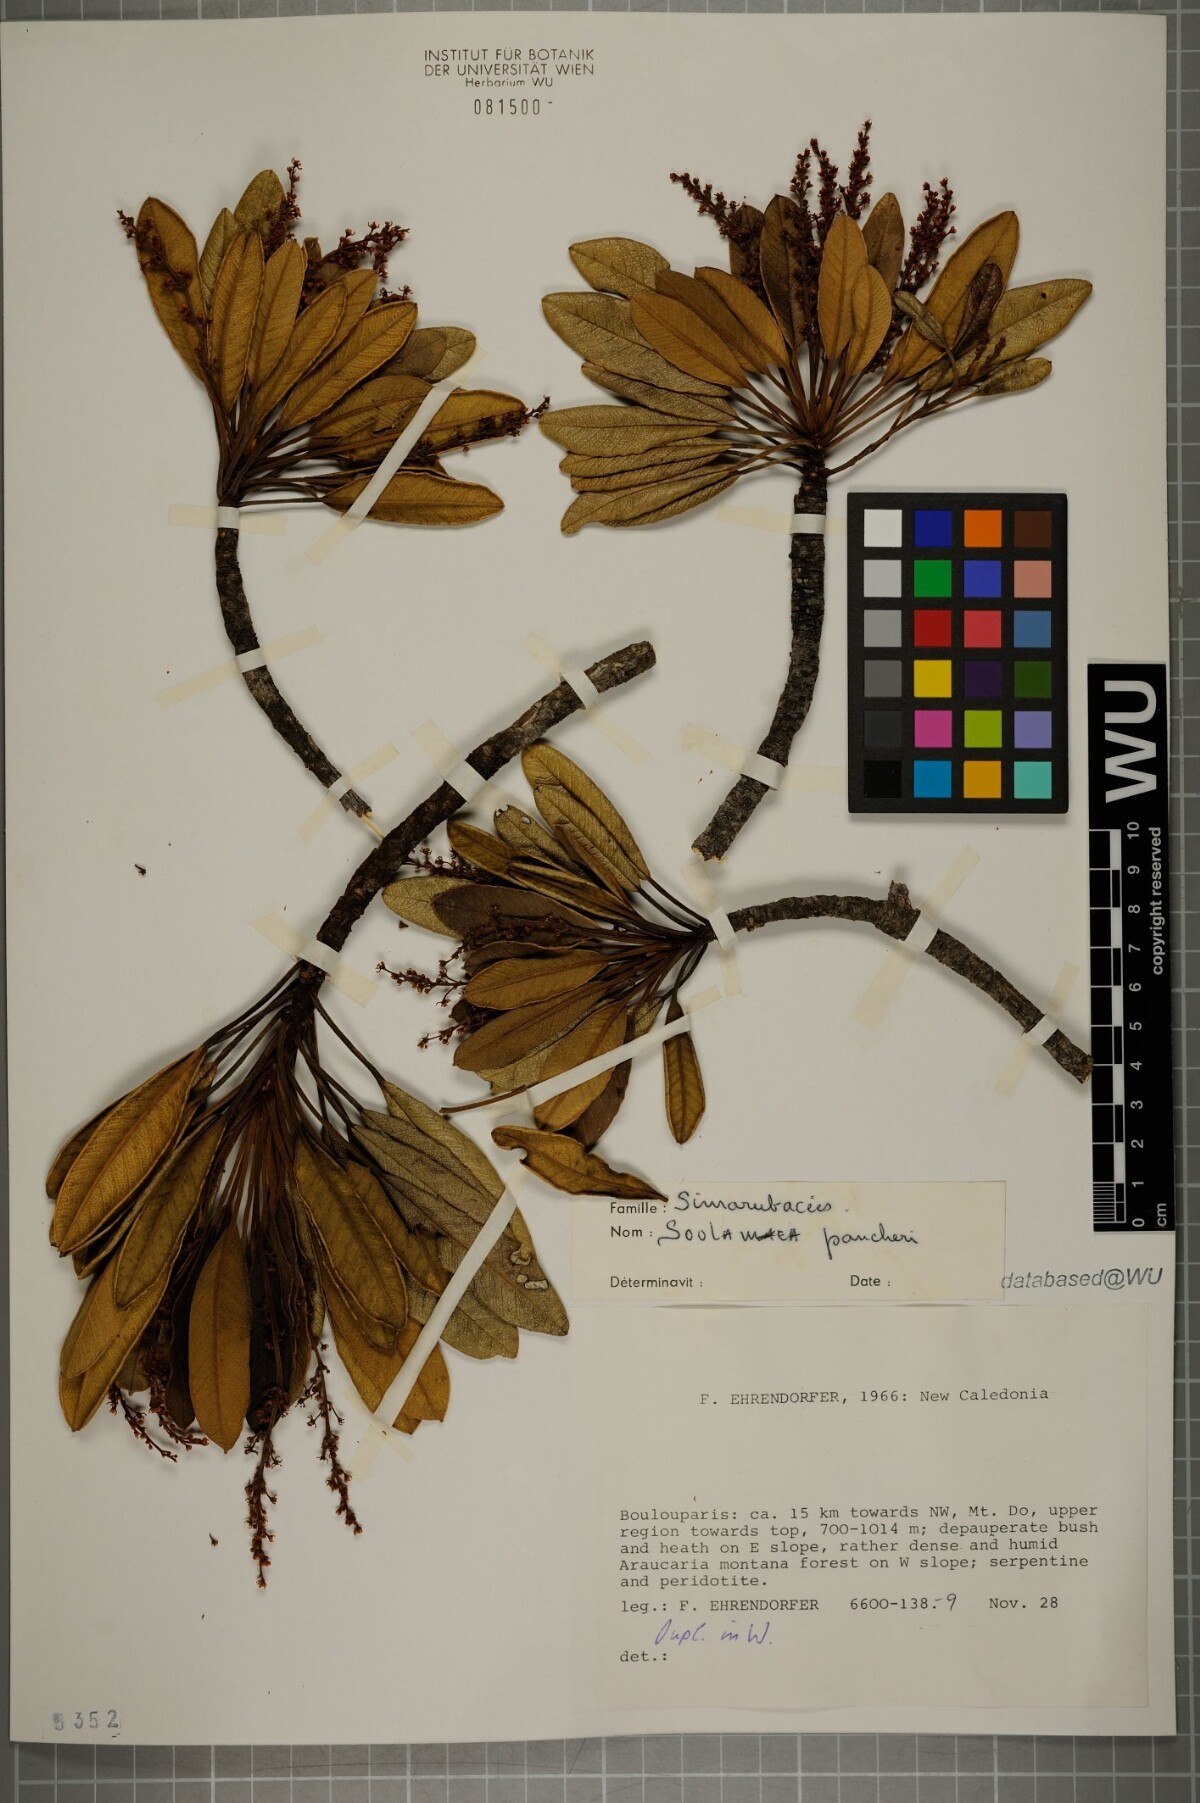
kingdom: Plantae
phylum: Tracheophyta
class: Magnoliopsida
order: Sapindales
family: Simaroubaceae
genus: Soulamea
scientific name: Soulamea pancheri
